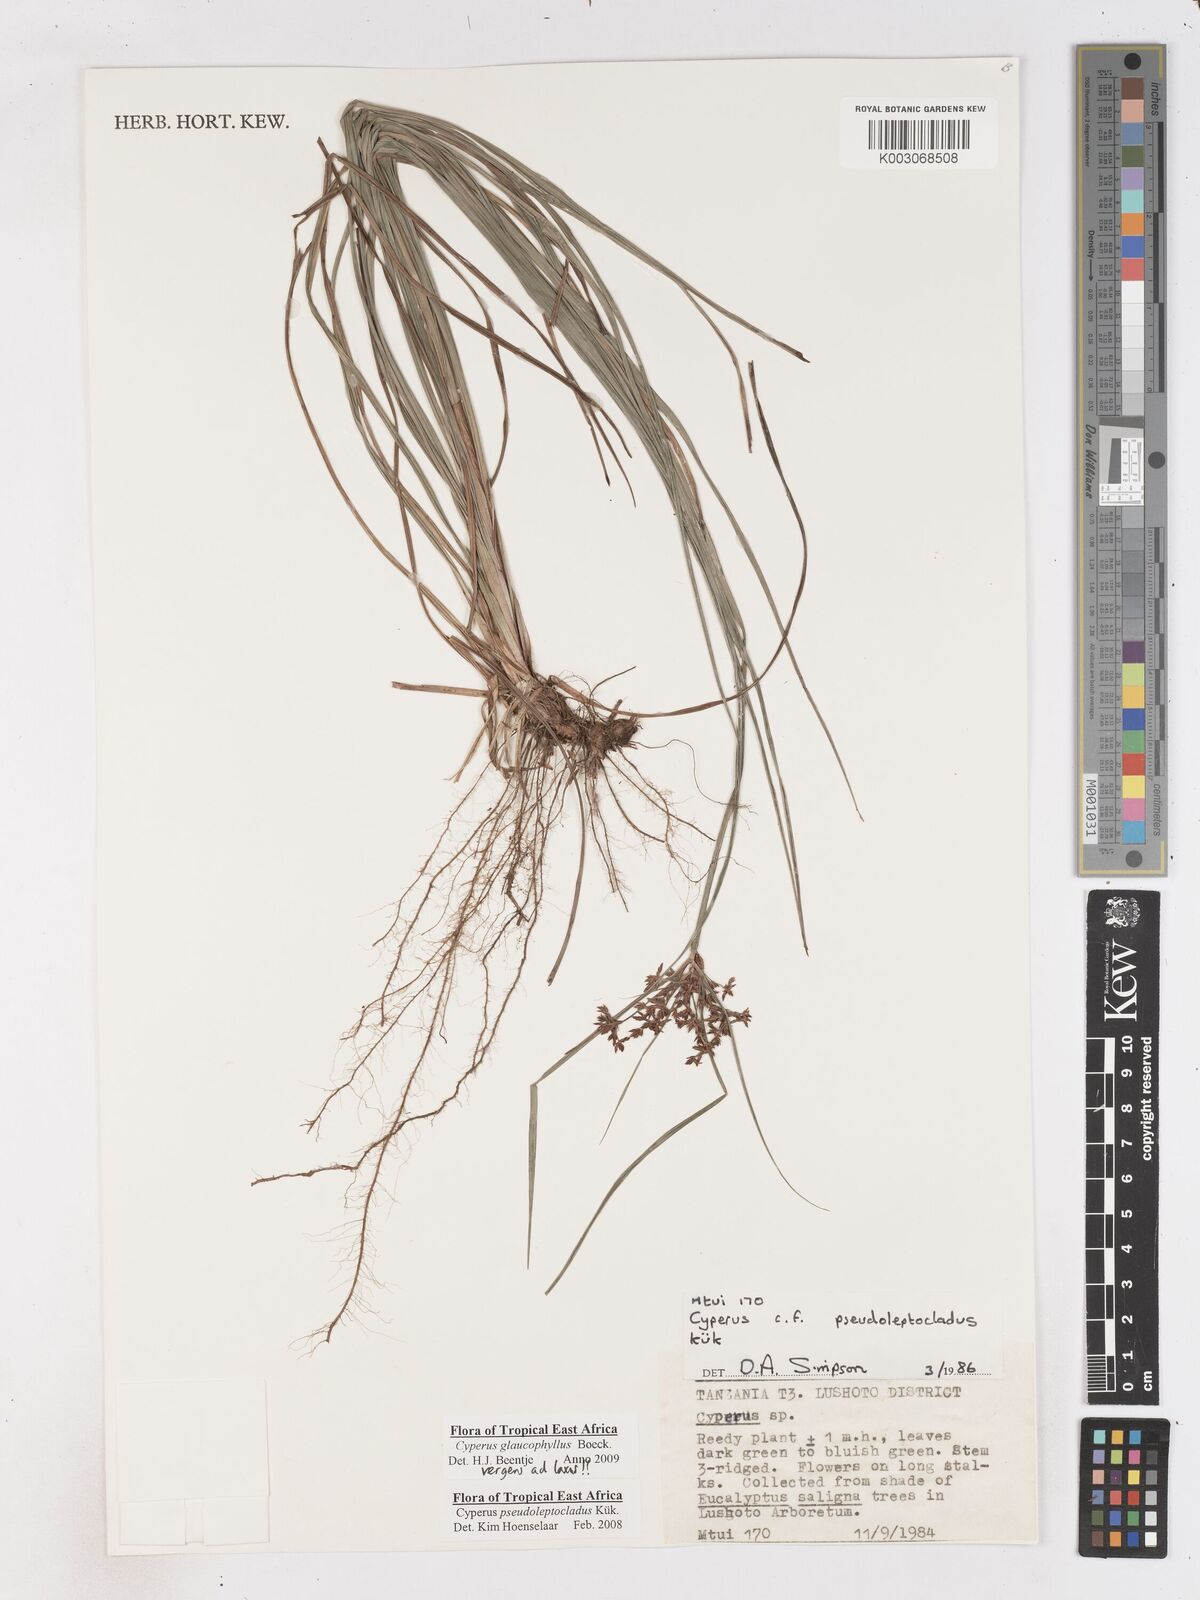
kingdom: Plantae
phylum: Tracheophyta
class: Liliopsida
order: Poales
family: Cyperaceae
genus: Cyperus
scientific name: Cyperus glaucophyllus
